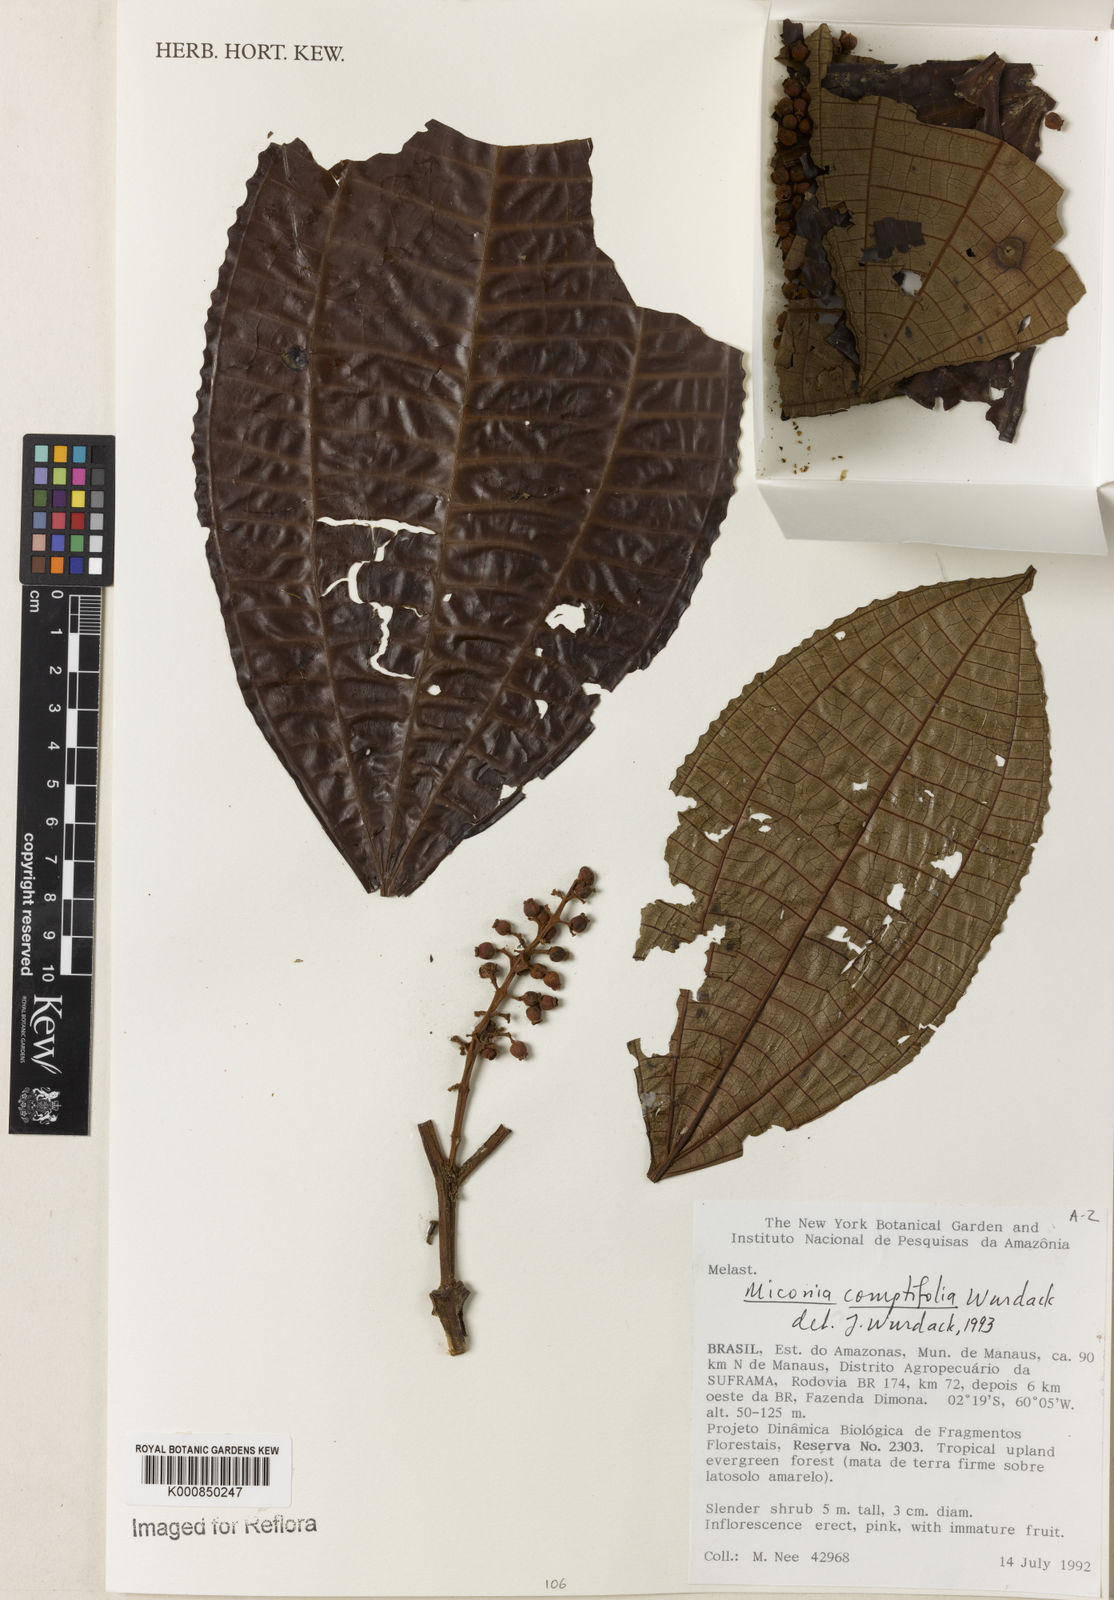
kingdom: Plantae
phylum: Tracheophyta
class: Magnoliopsida
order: Myrtales
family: Melastomataceae
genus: Miconia
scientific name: Miconia comptifolia
